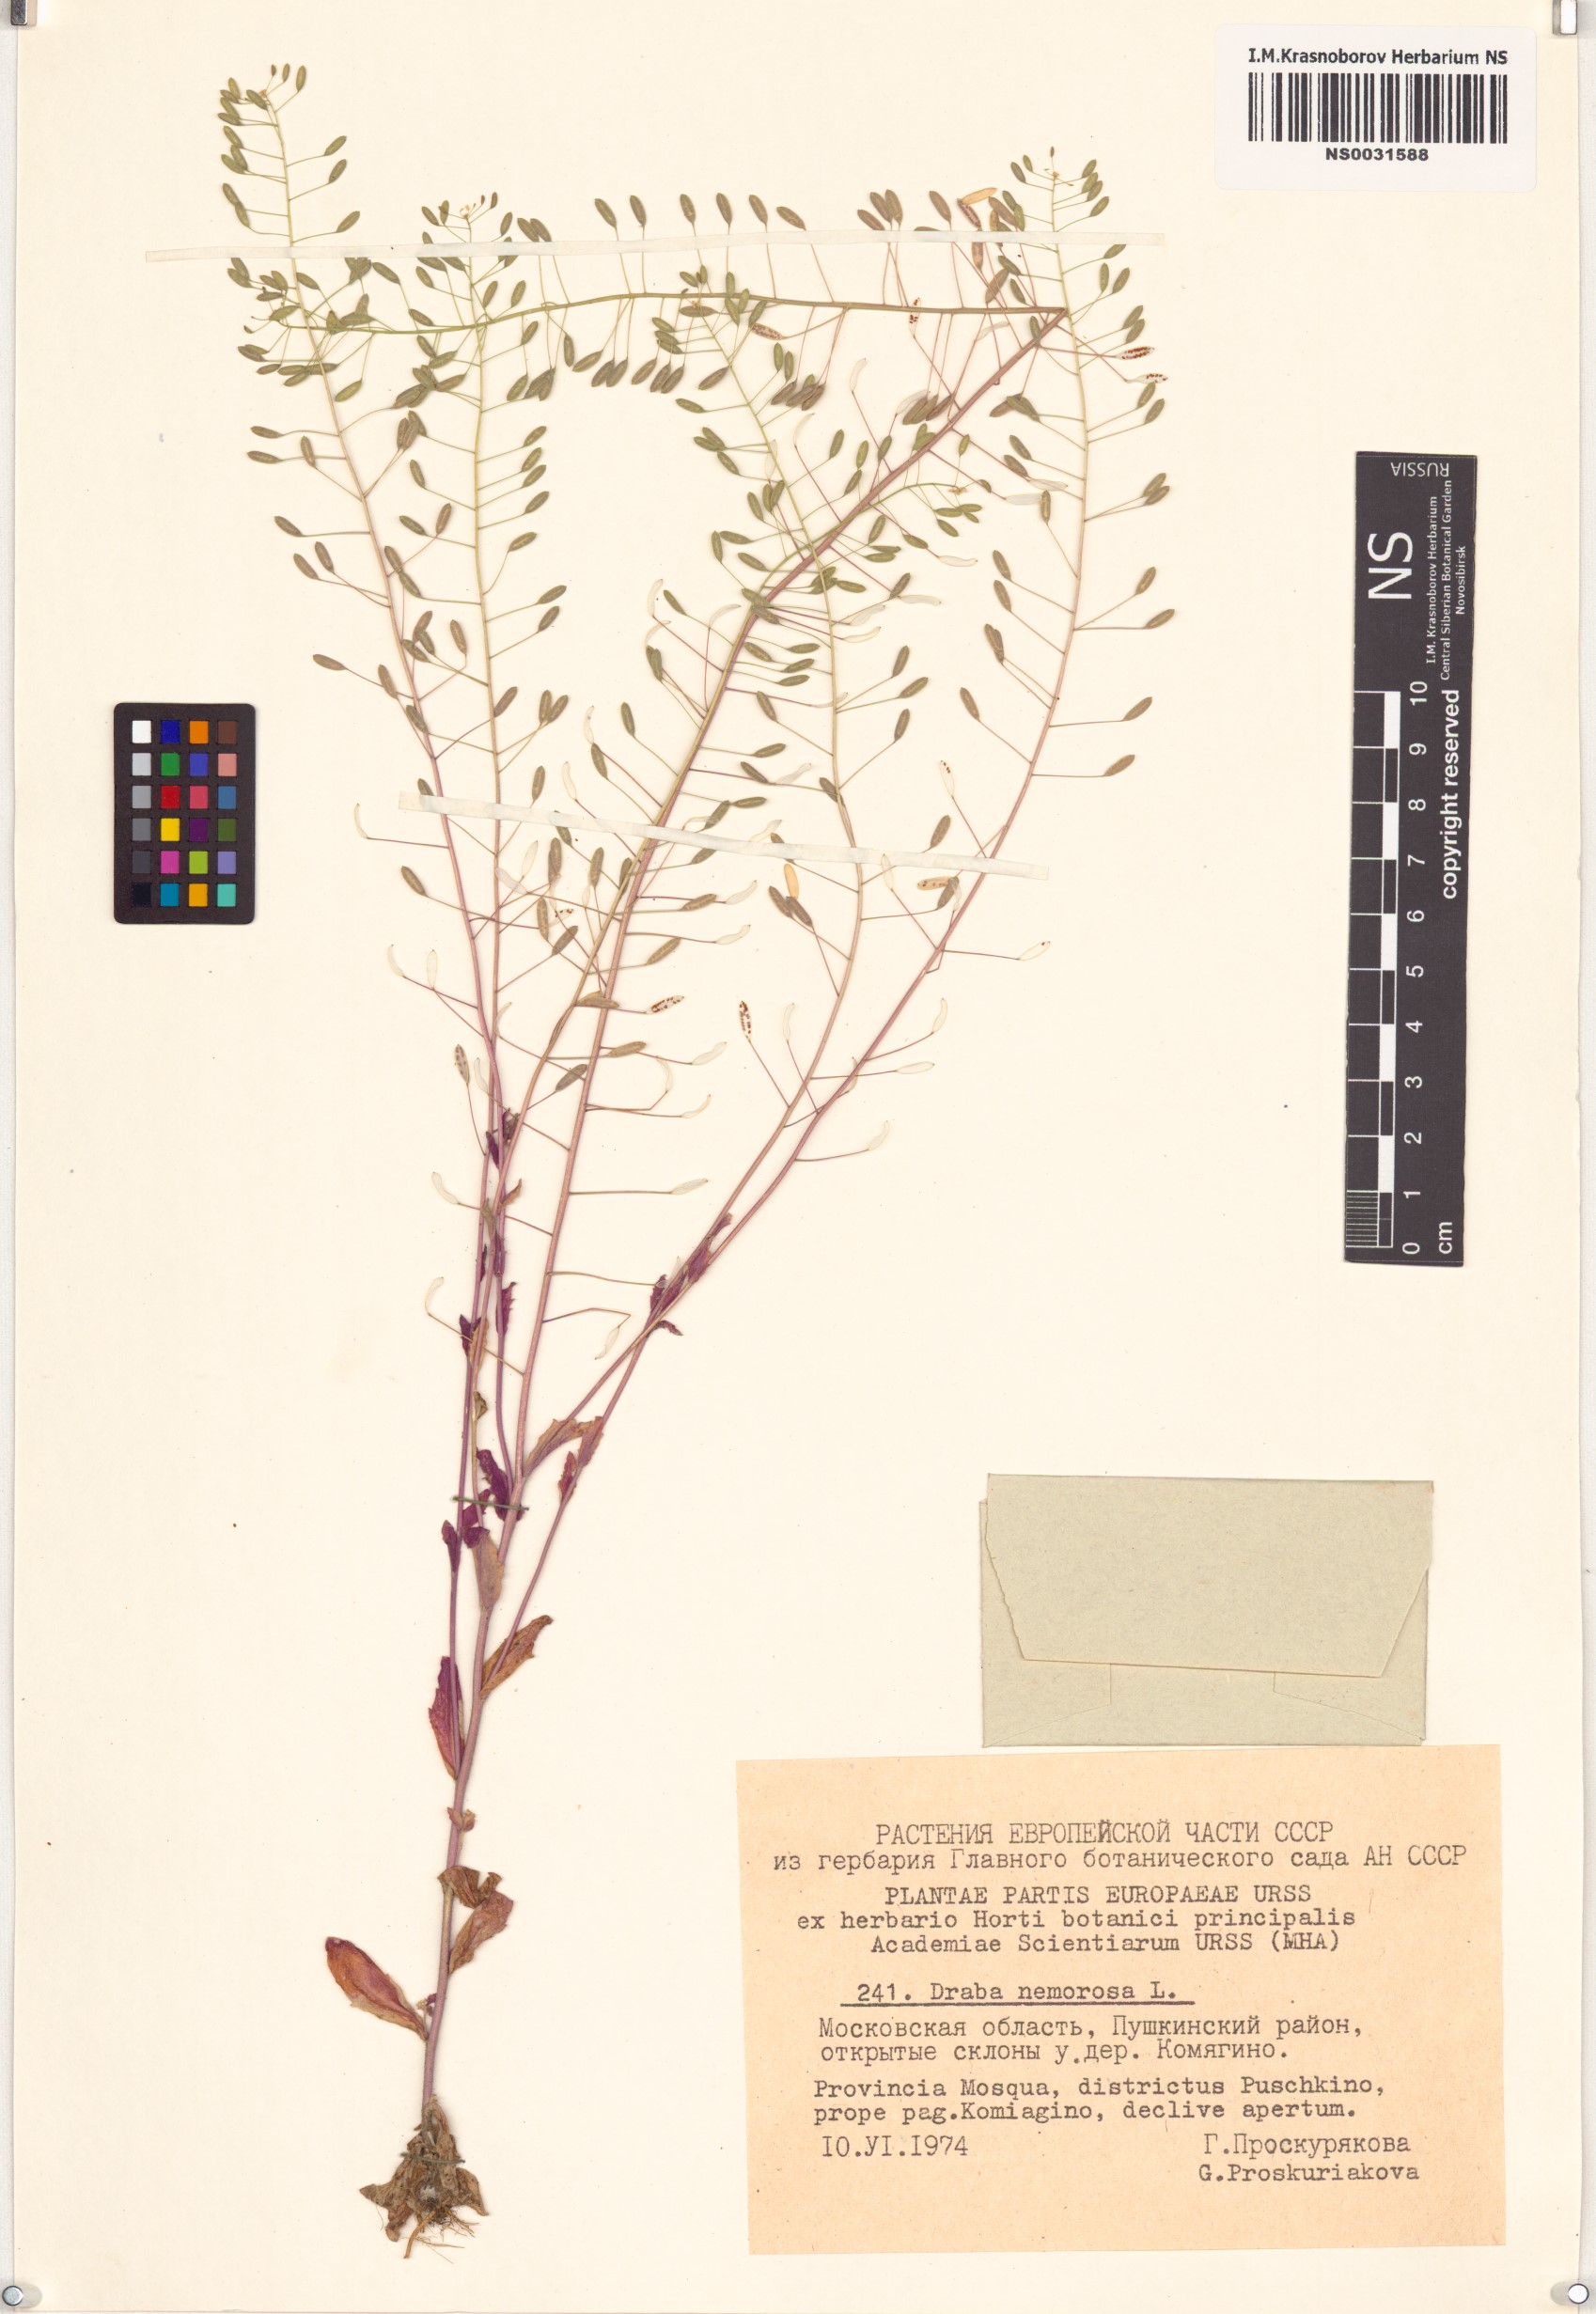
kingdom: Plantae
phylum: Tracheophyta
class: Magnoliopsida
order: Brassicales
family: Brassicaceae
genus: Draba
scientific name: Draba nemorosa
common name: Wood whitlow-grass
